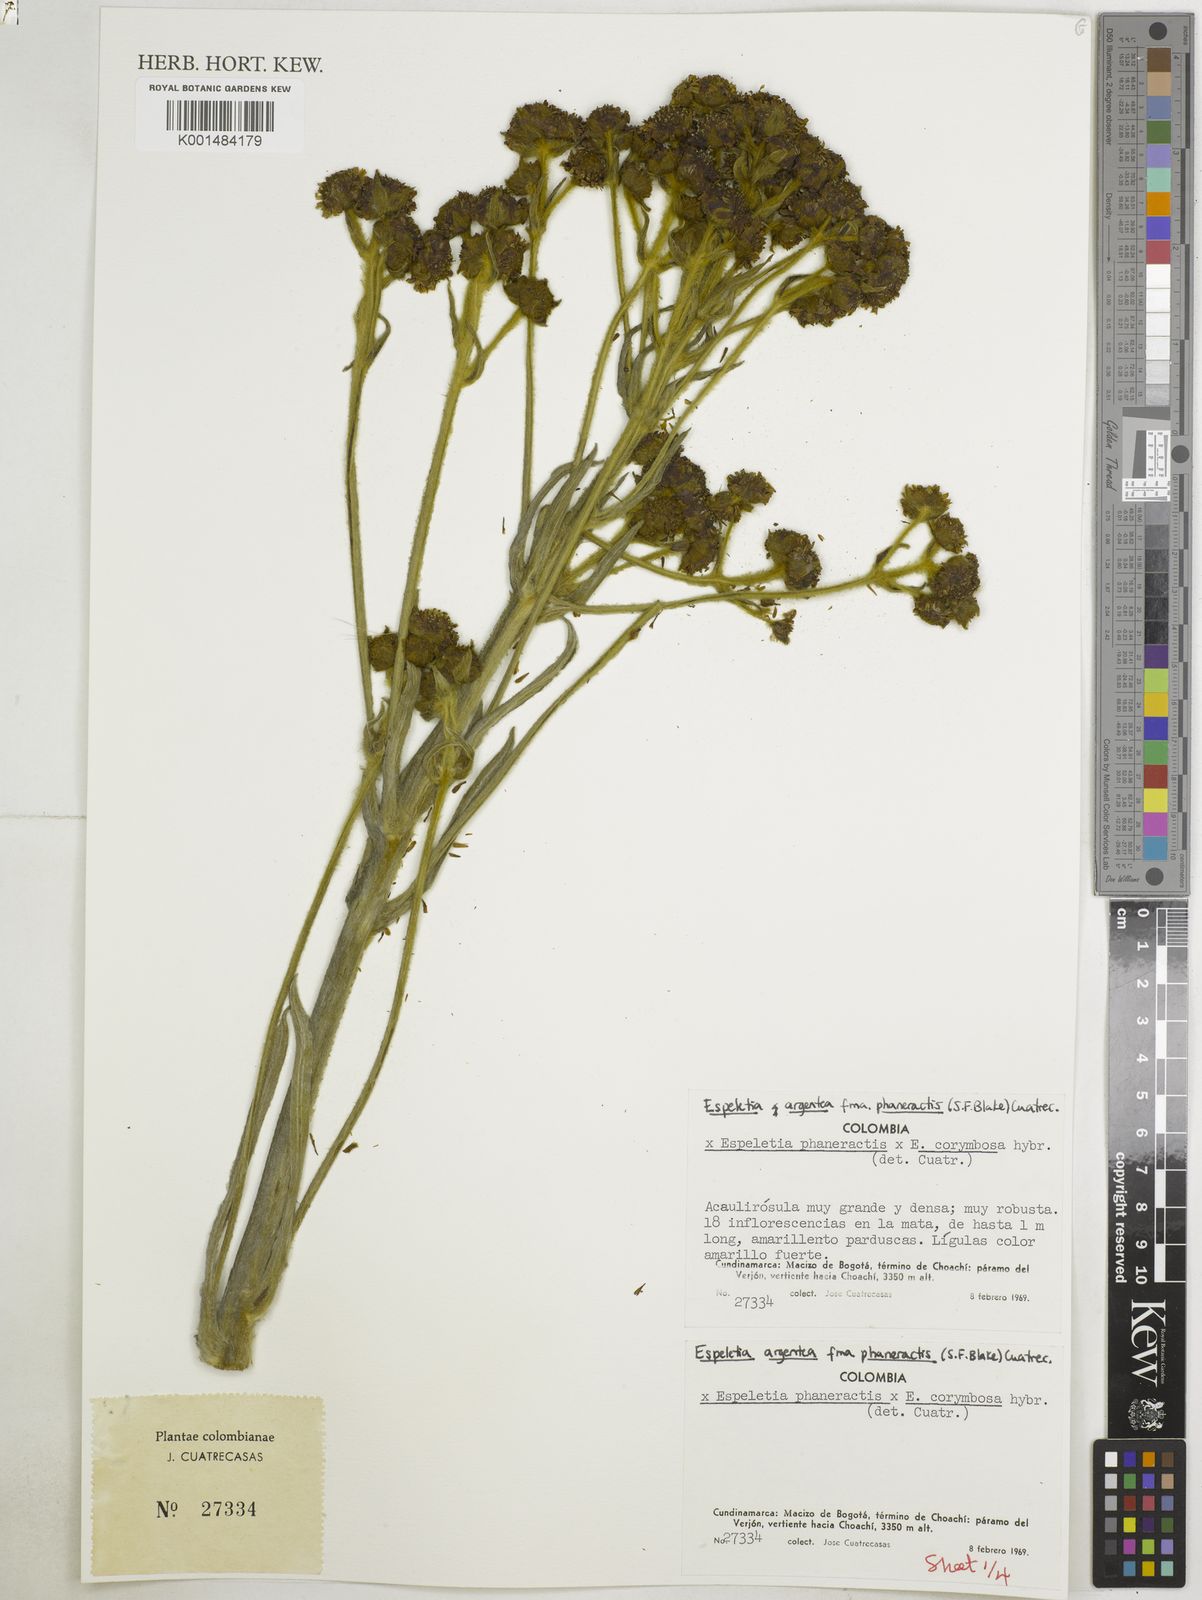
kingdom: Plantae
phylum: Tracheophyta
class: Magnoliopsida
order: Asterales
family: Asteraceae
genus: Espeletia
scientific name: Espeletia argentea
